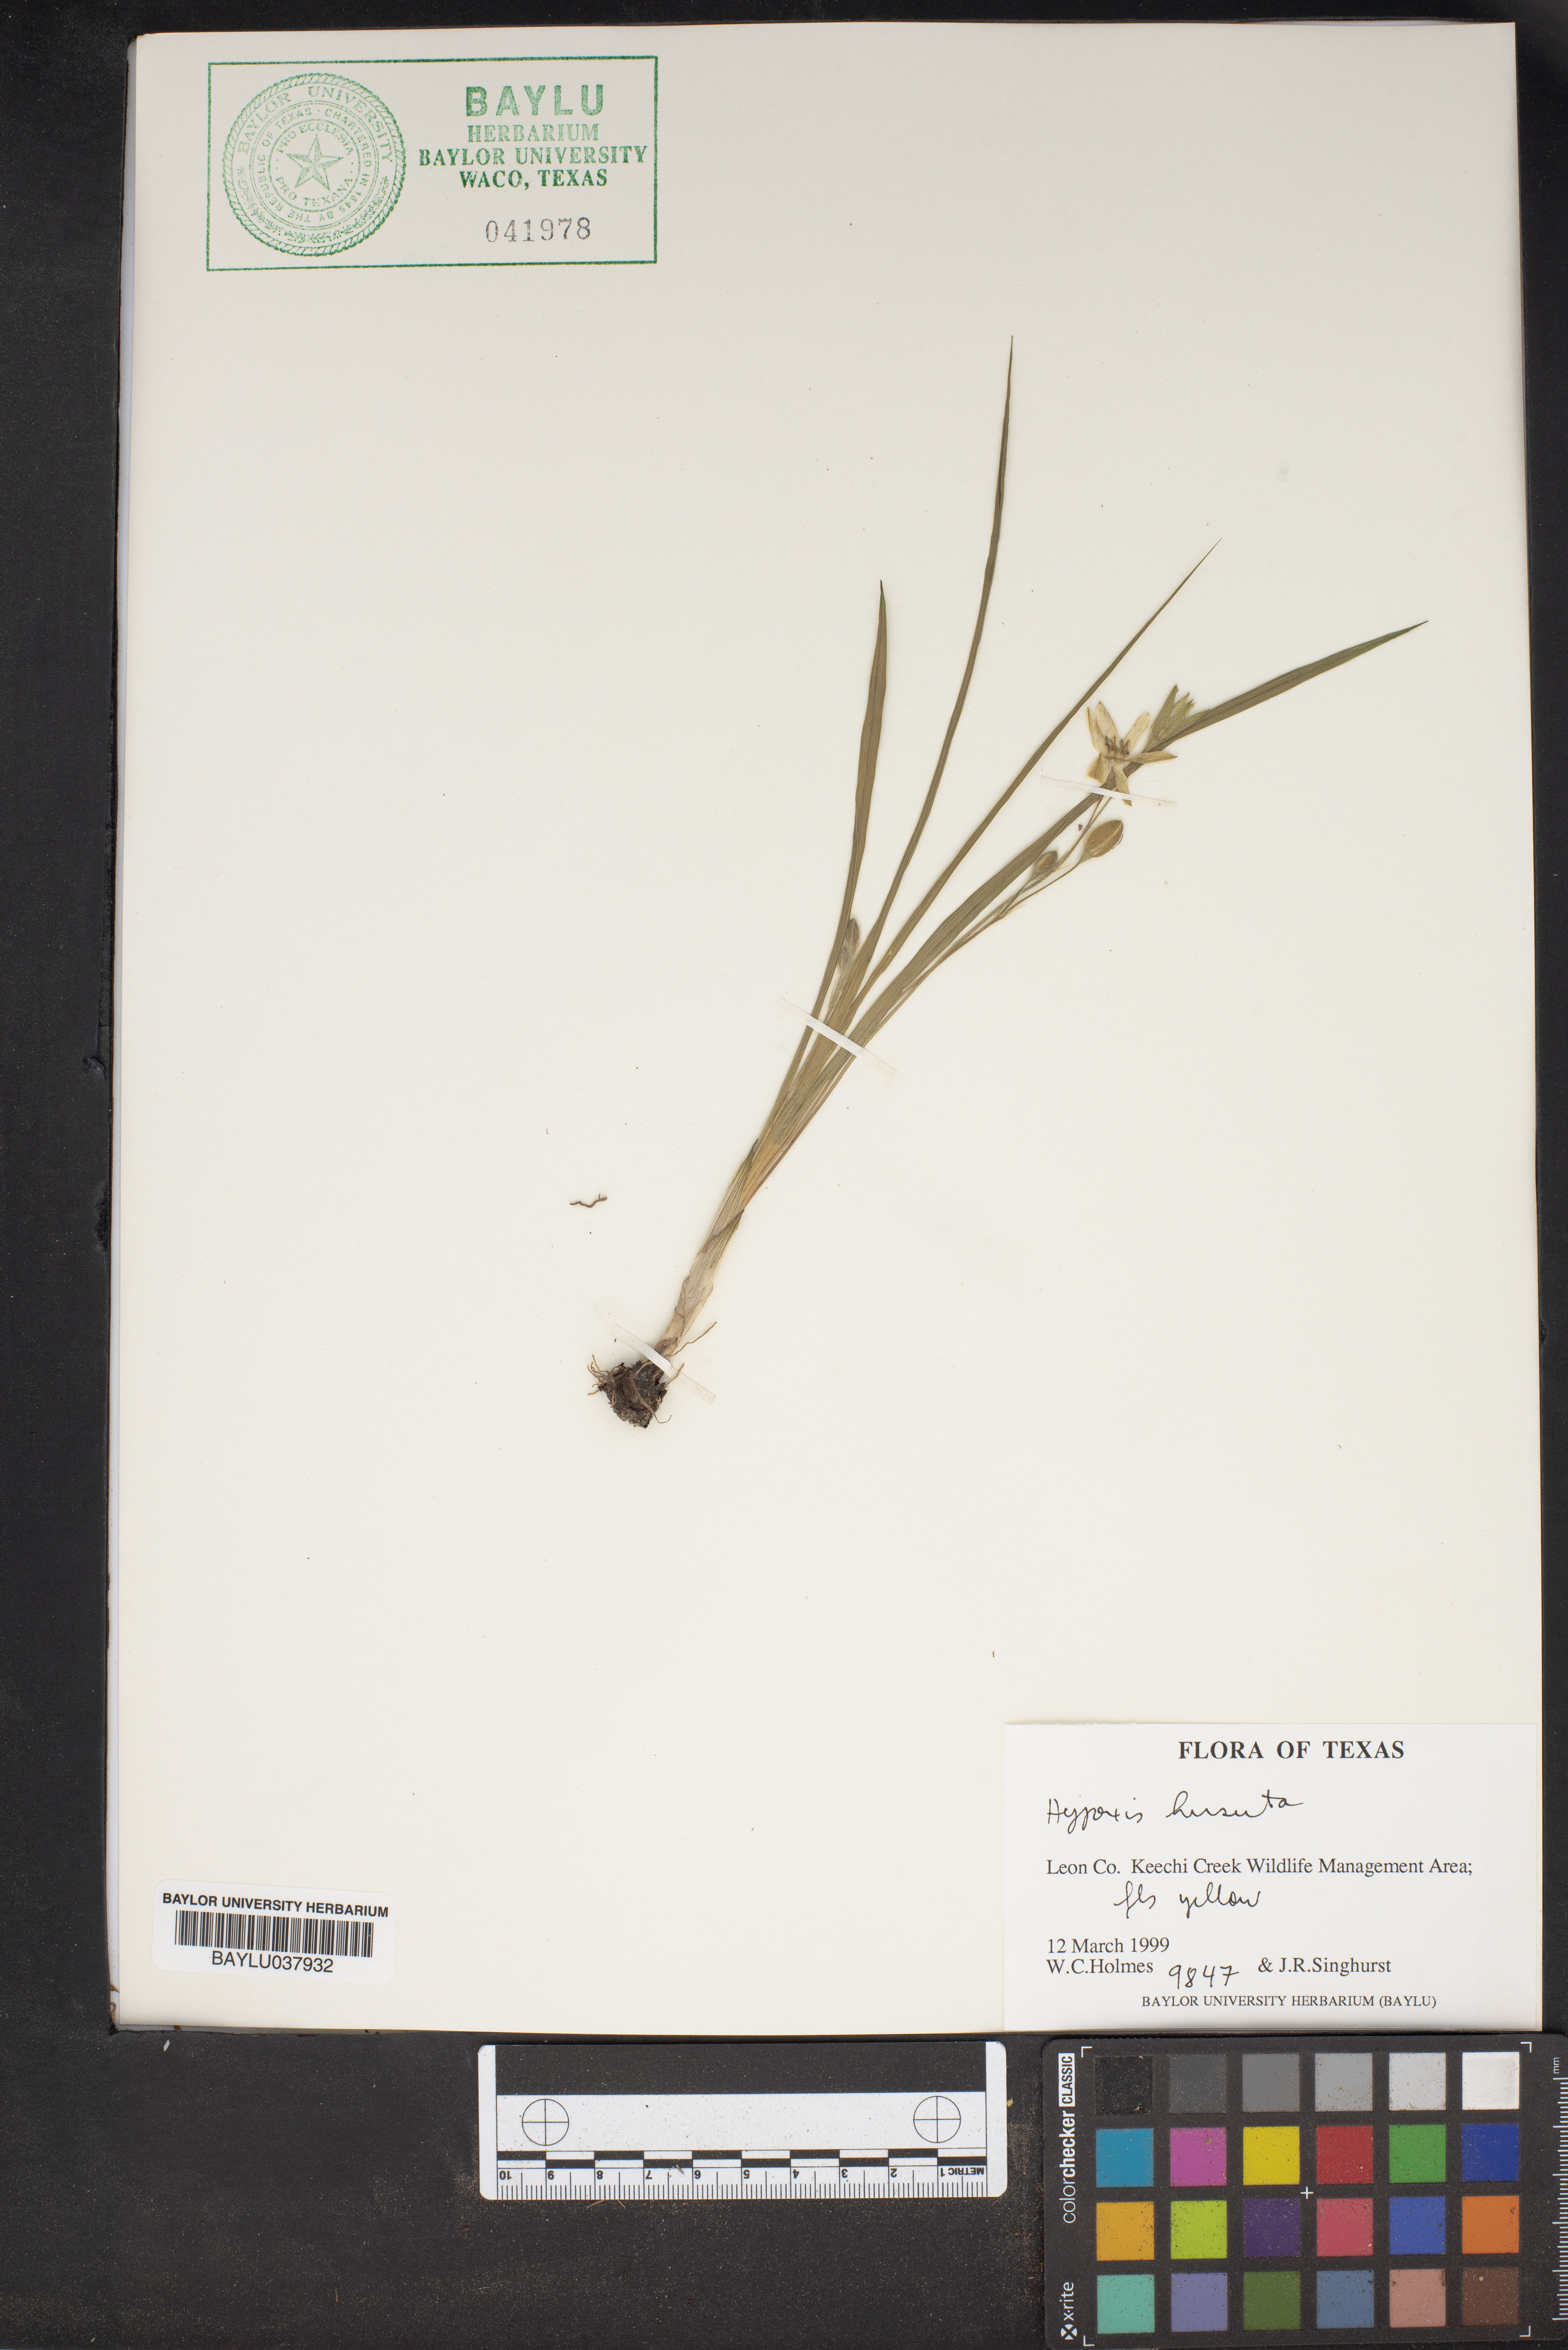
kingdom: Plantae
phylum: Tracheophyta
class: Liliopsida
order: Asparagales
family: Hypoxidaceae
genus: Hypoxis
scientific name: Hypoxis hirsuta
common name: Common goldstar
